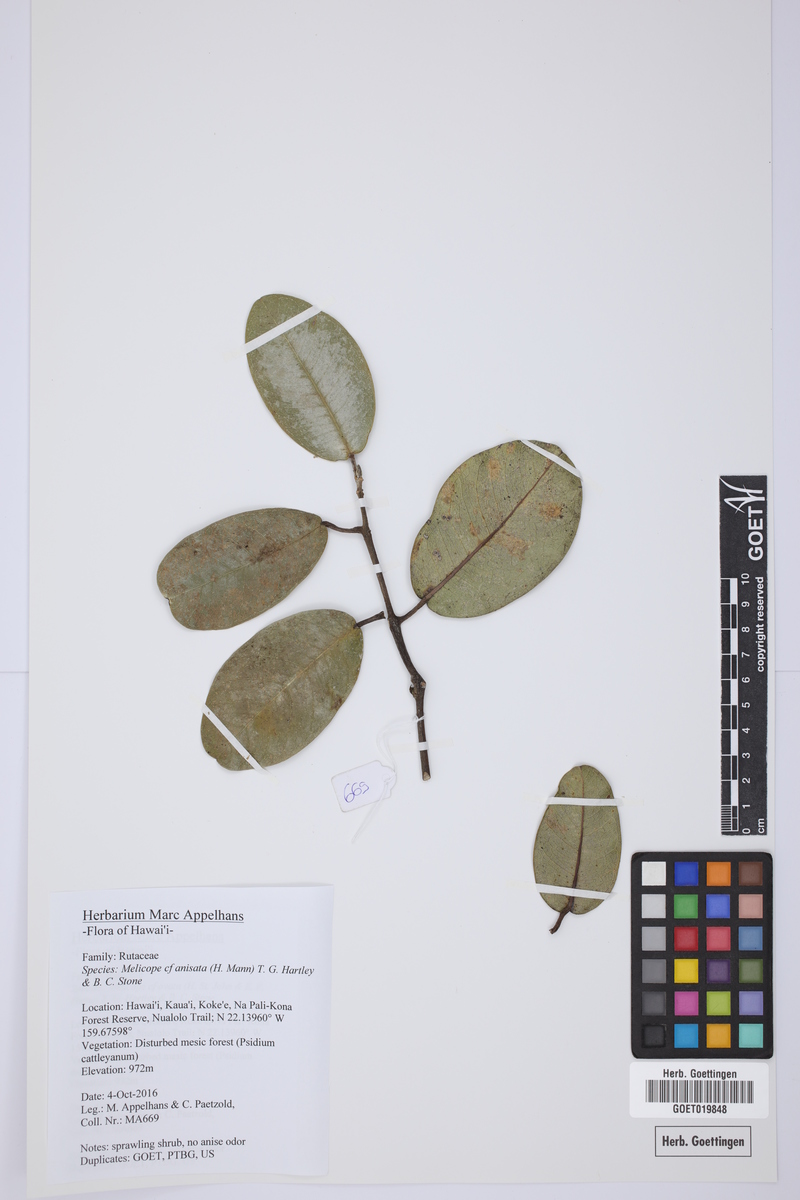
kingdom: Plantae
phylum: Tracheophyta
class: Magnoliopsida
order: Sapindales
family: Rutaceae
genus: Melicope
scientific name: Melicope anisata
